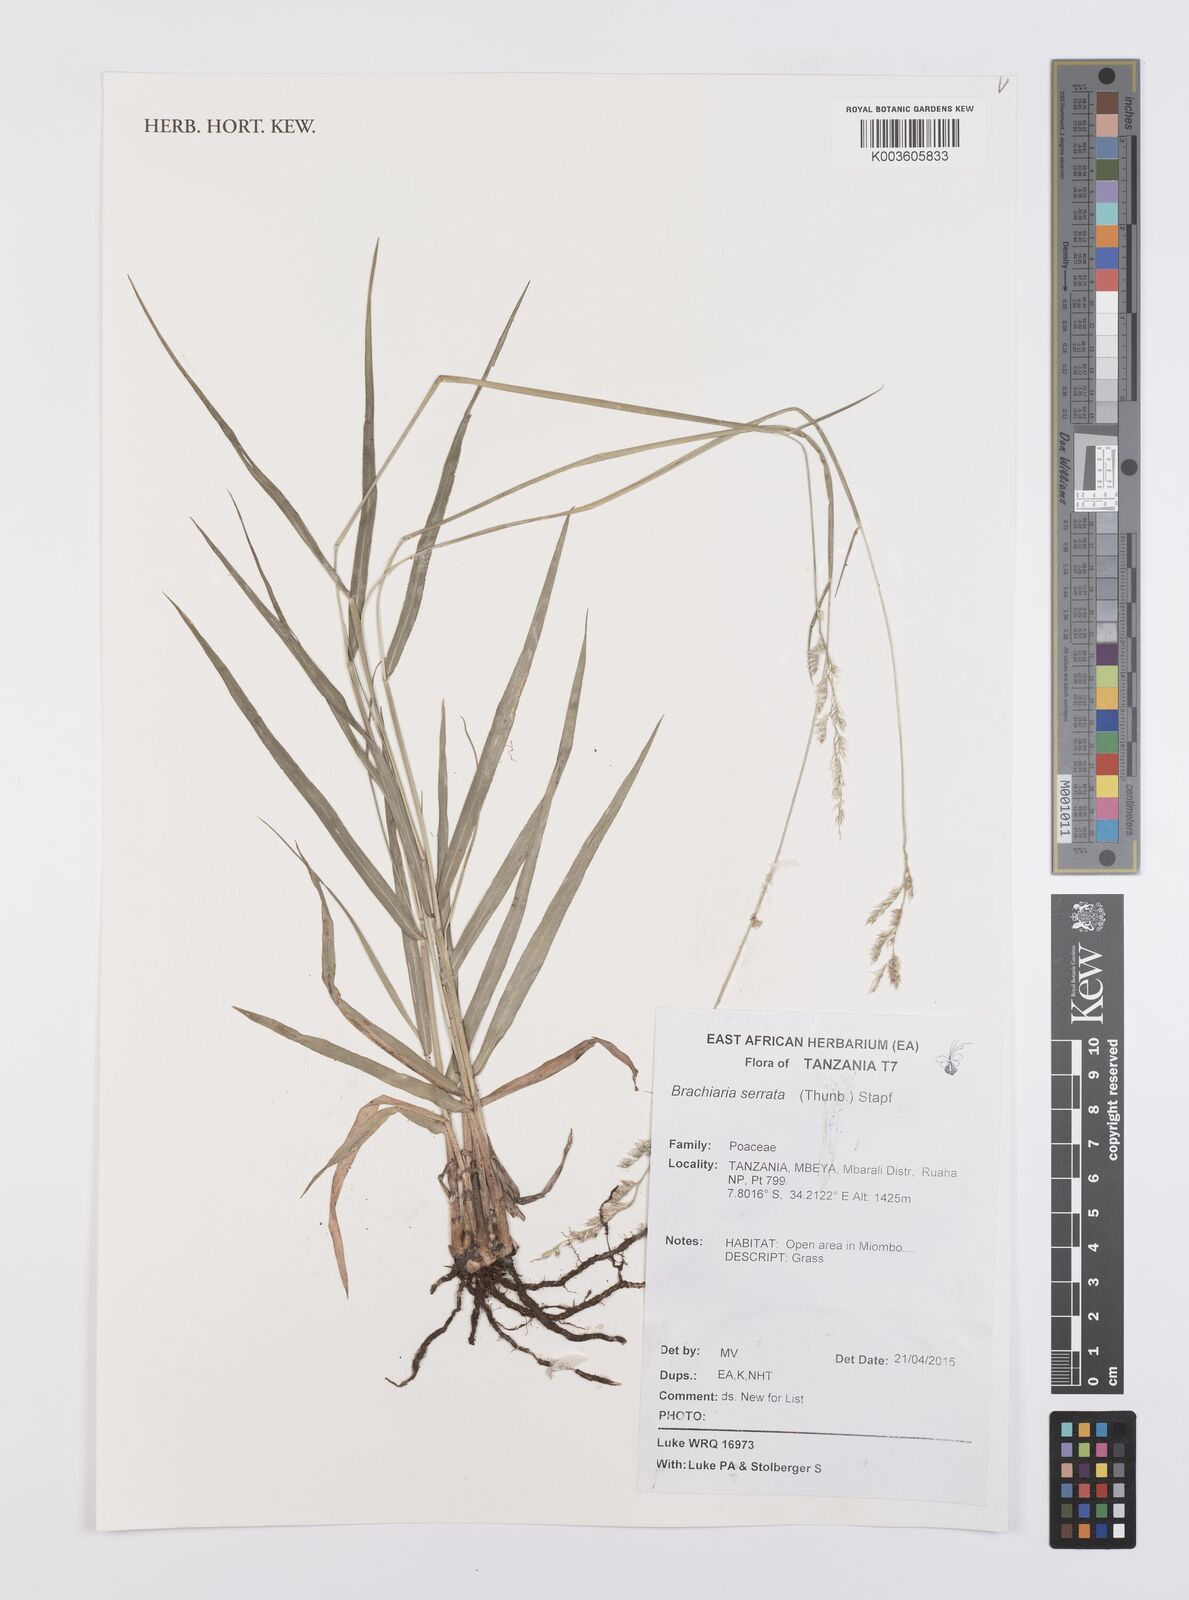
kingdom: Plantae
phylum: Tracheophyta
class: Liliopsida
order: Poales
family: Poaceae
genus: Urochloa
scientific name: Urochloa serrata
